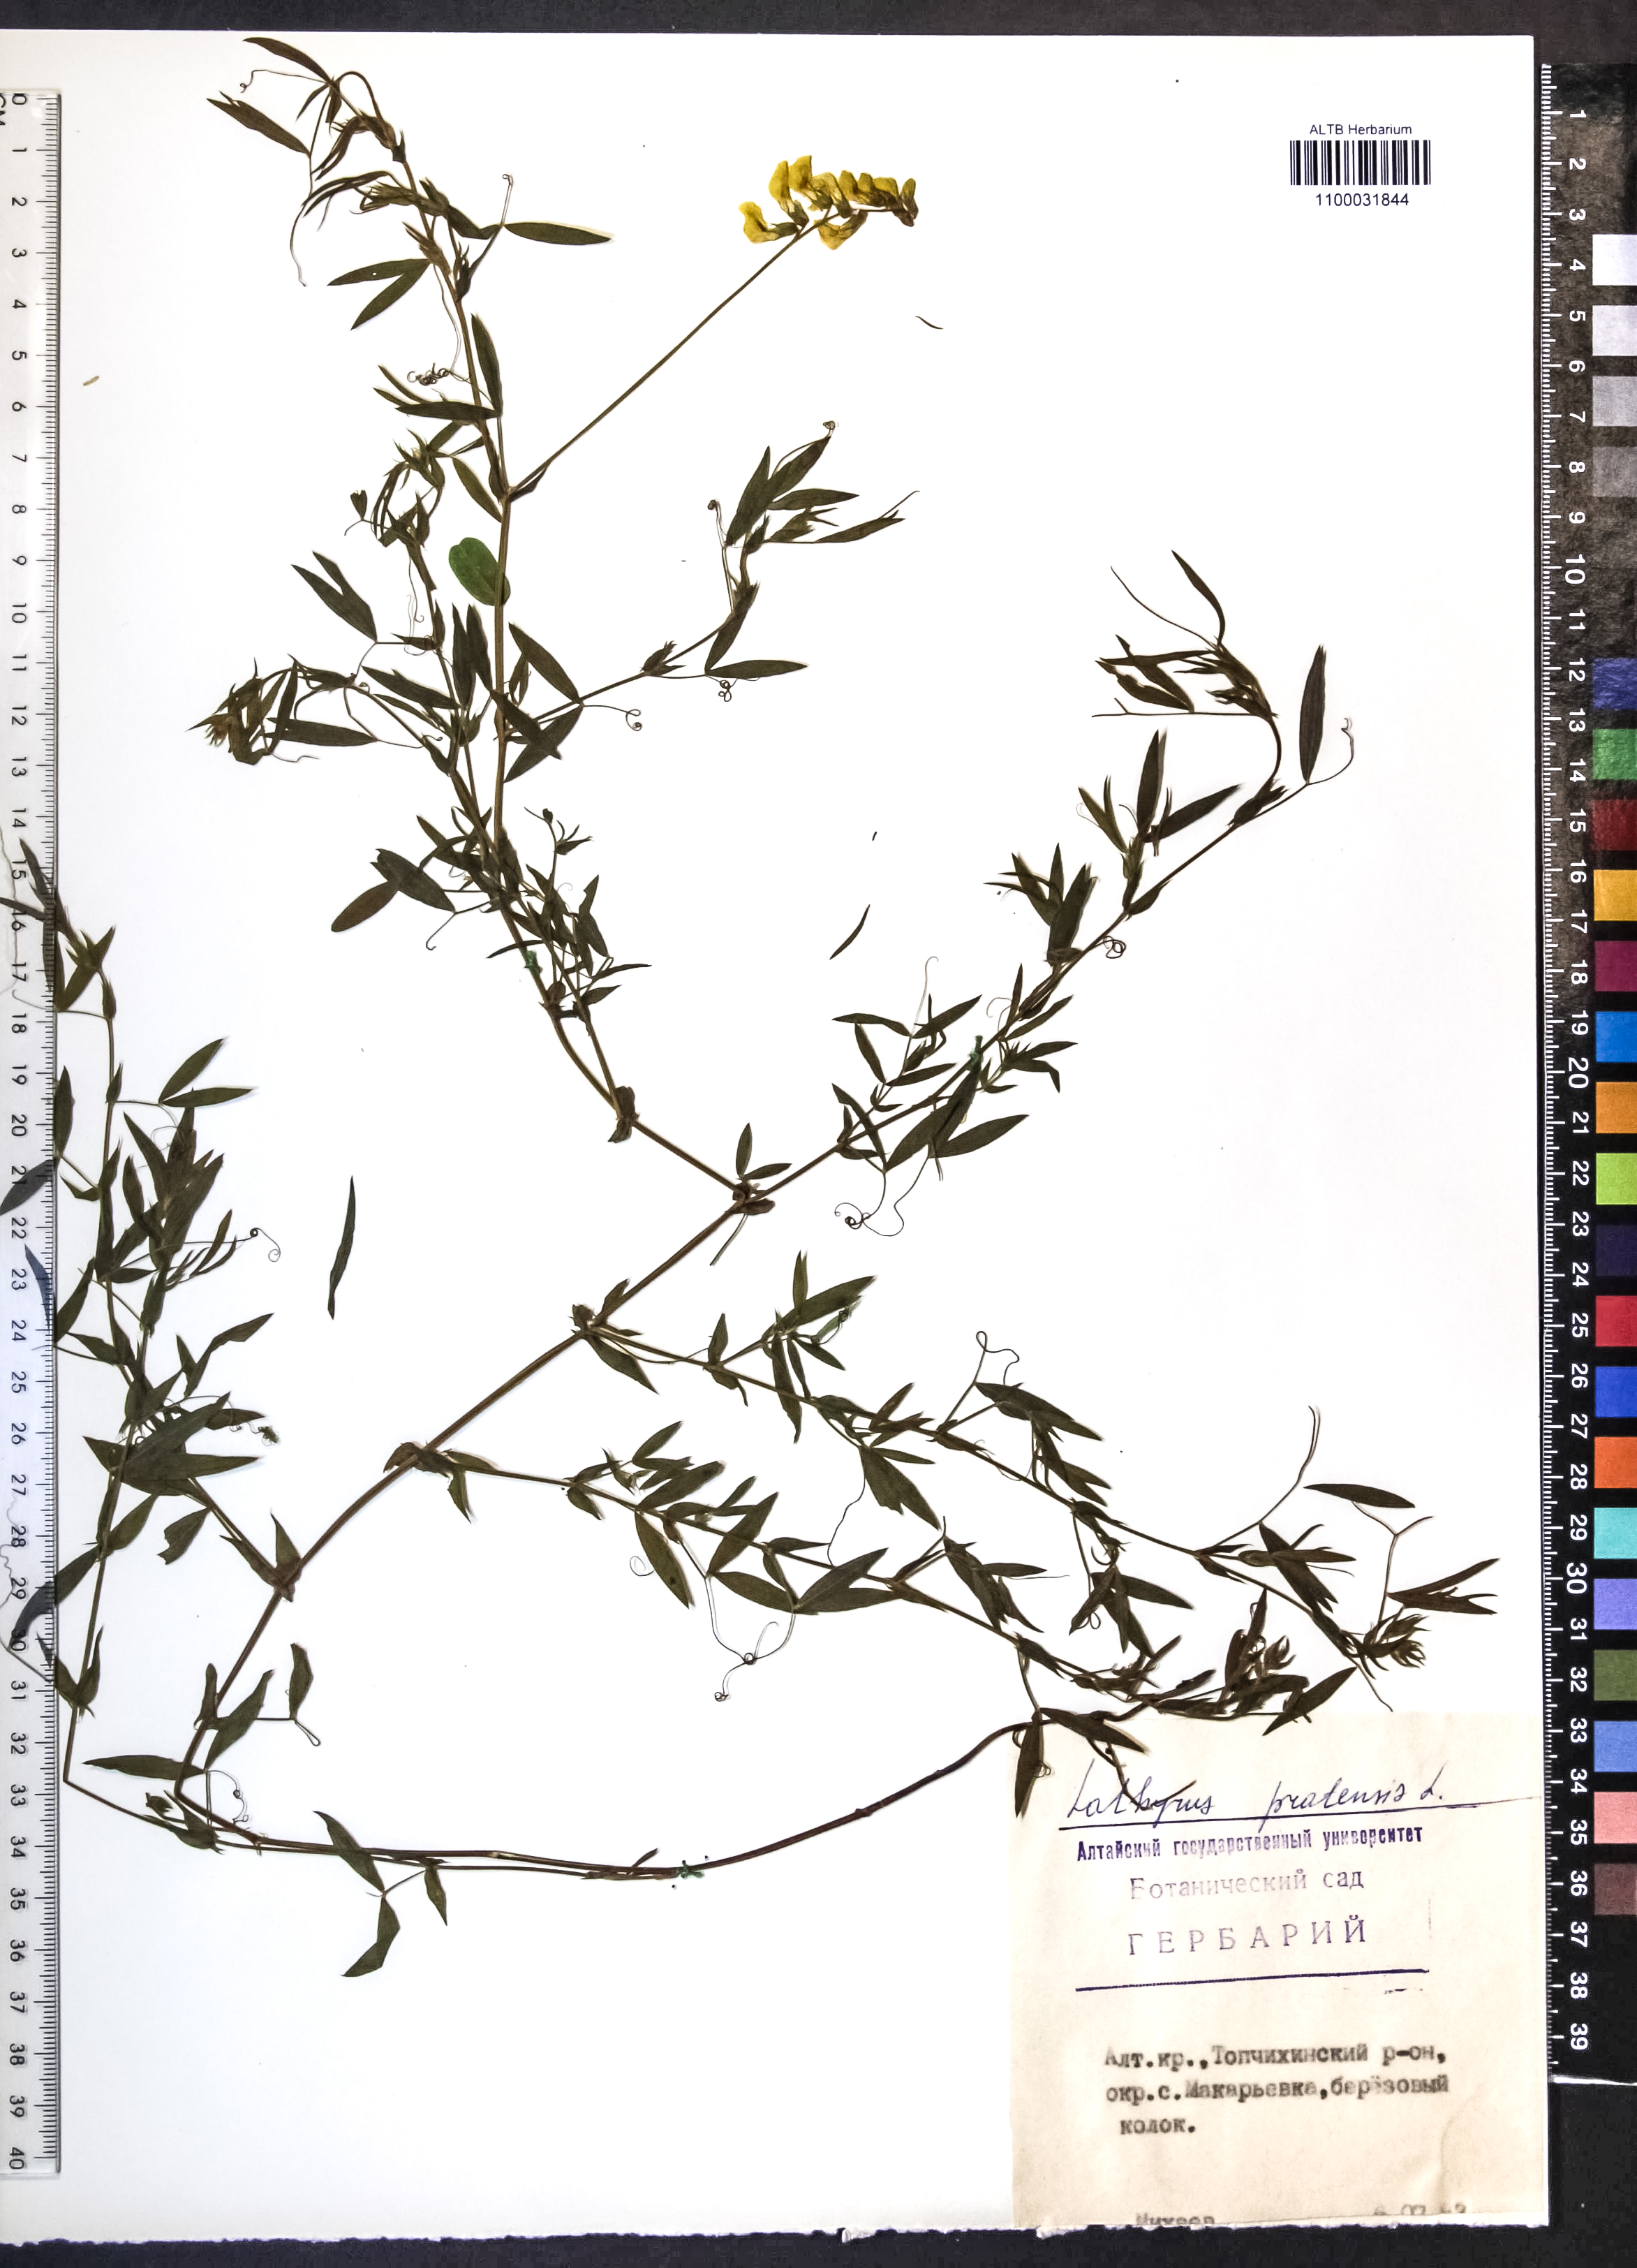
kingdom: Plantae
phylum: Tracheophyta
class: Magnoliopsida
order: Fabales
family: Fabaceae
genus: Lathyrus
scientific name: Lathyrus pratensis
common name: Meadow vetchling
